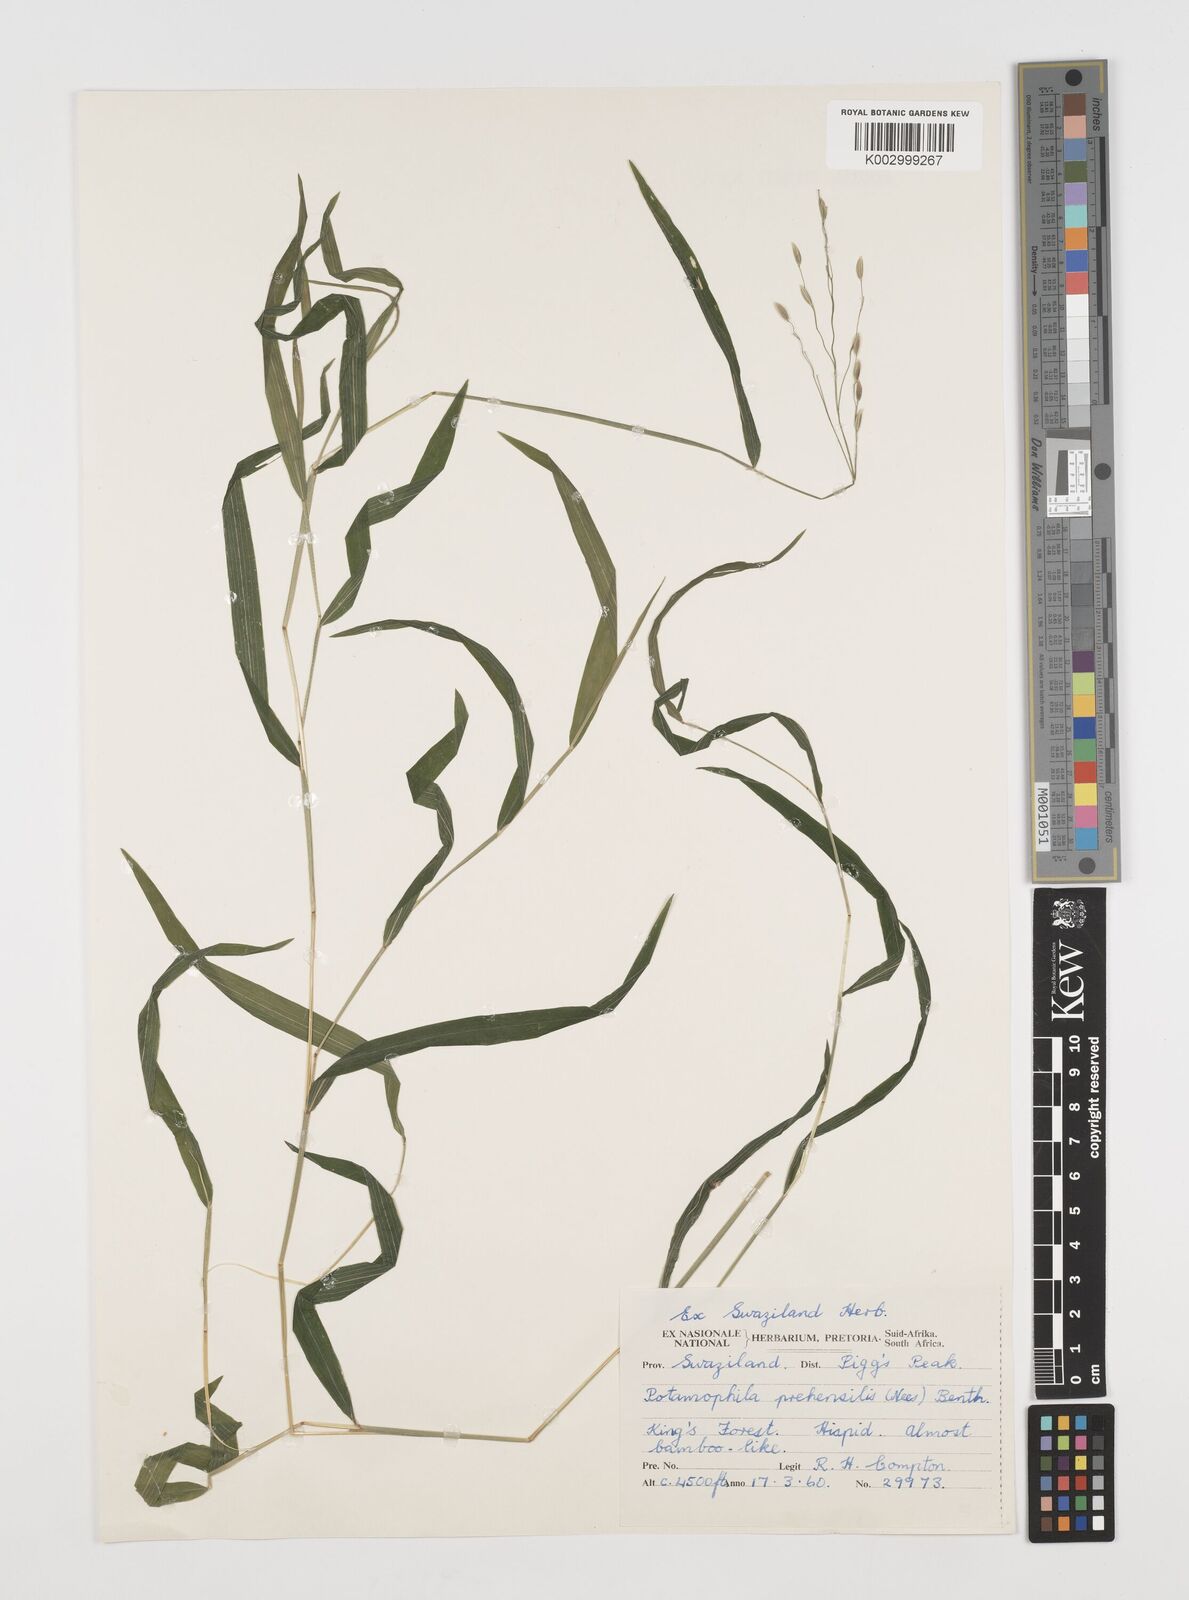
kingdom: Plantae
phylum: Tracheophyta
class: Liliopsida
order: Poales
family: Poaceae
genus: Prosphytochloa
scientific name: Prosphytochloa prehensilis
